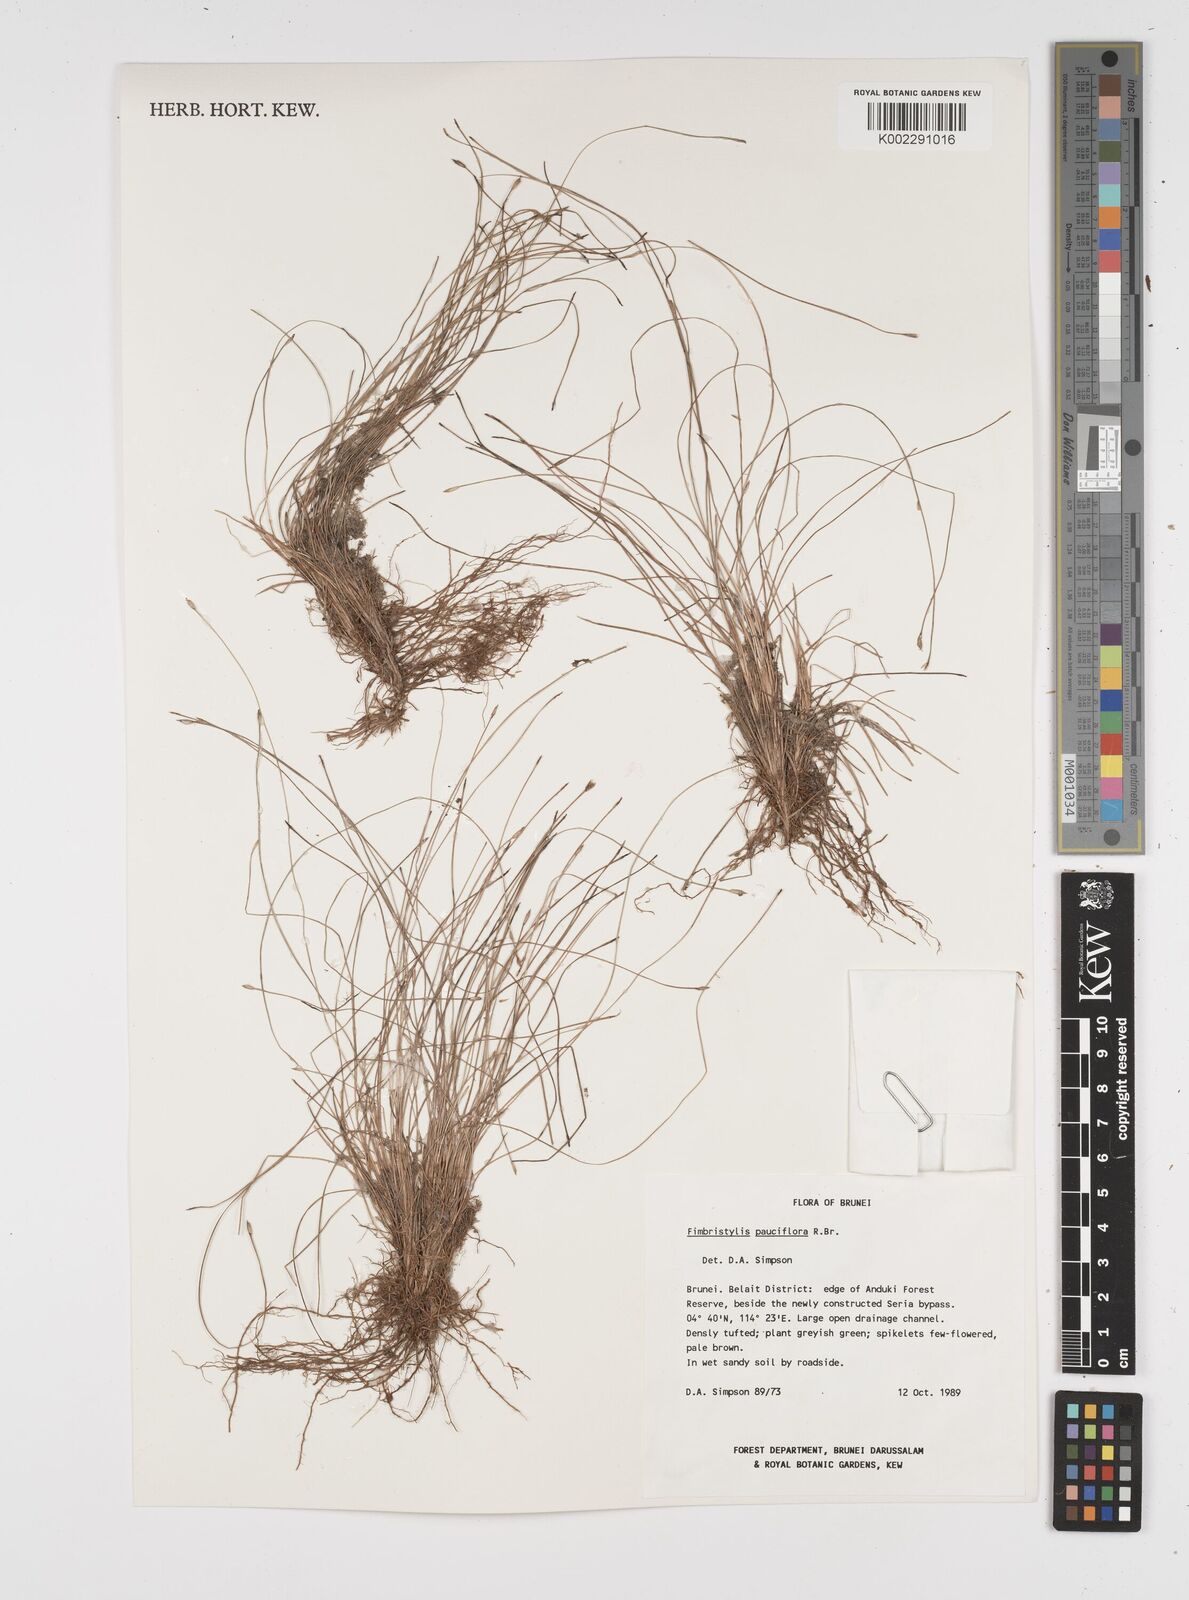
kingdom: Plantae
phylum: Tracheophyta
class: Liliopsida
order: Poales
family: Cyperaceae
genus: Fimbristylis
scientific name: Fimbristylis pauciflora
